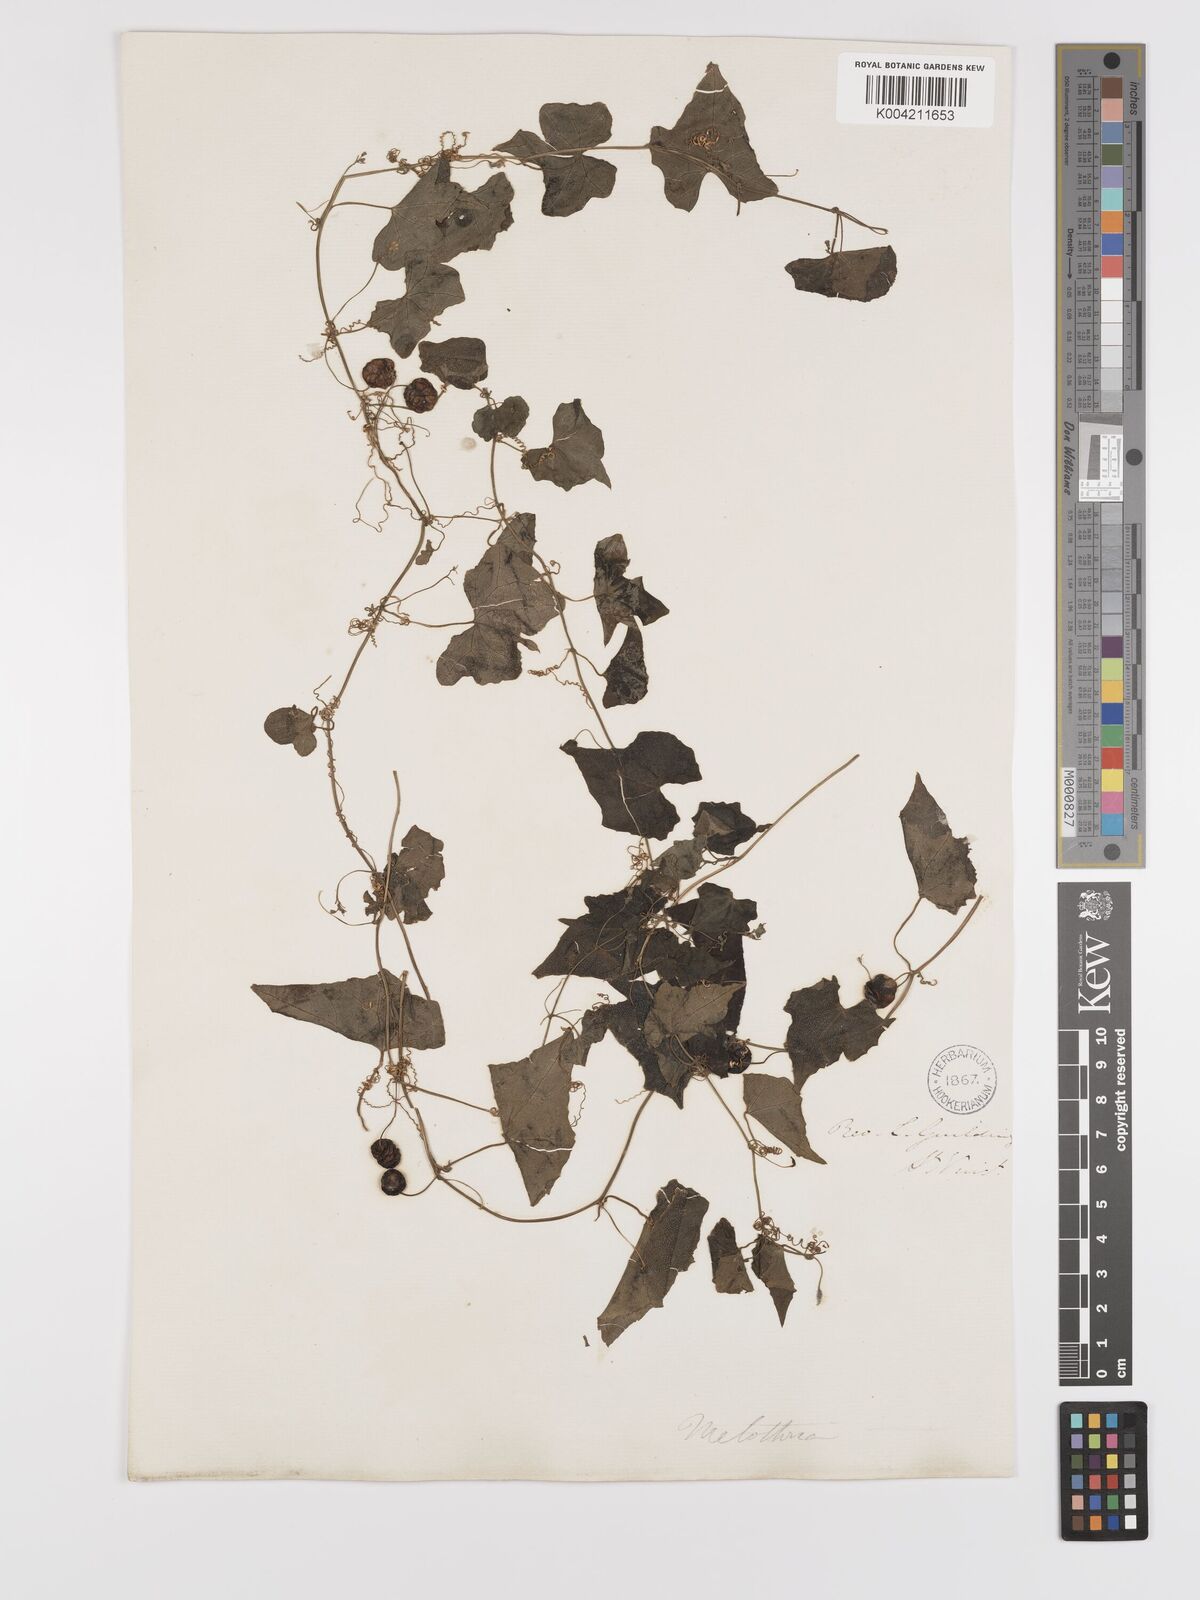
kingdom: Plantae
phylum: Tracheophyta
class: Magnoliopsida
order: Cucurbitales
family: Cucurbitaceae
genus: Melothria
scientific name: Melothria
